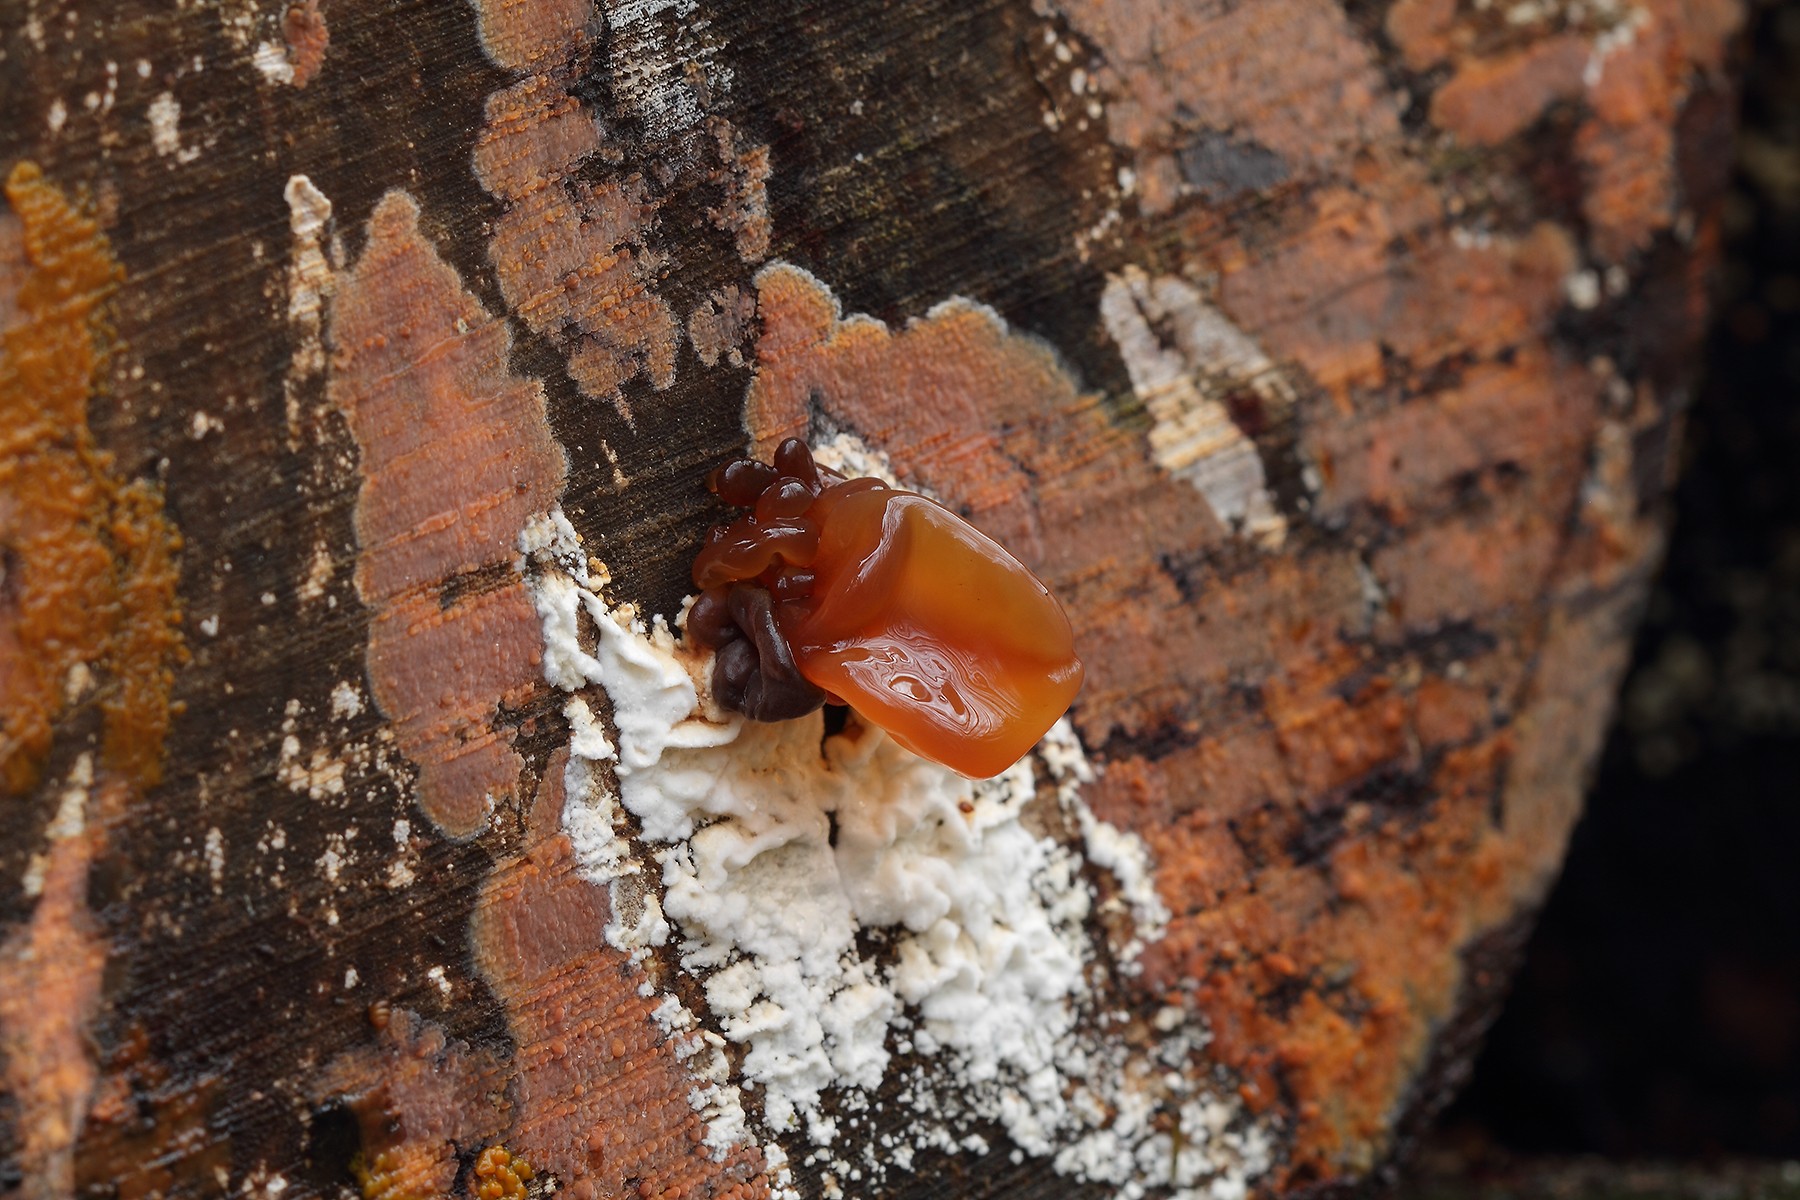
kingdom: Fungi
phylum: Basidiomycota
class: Tremellomycetes
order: Tremellales
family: Tremellaceae
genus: Phaeotremella
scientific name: Phaeotremella frondosa
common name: kæmpe-bævresvamp
